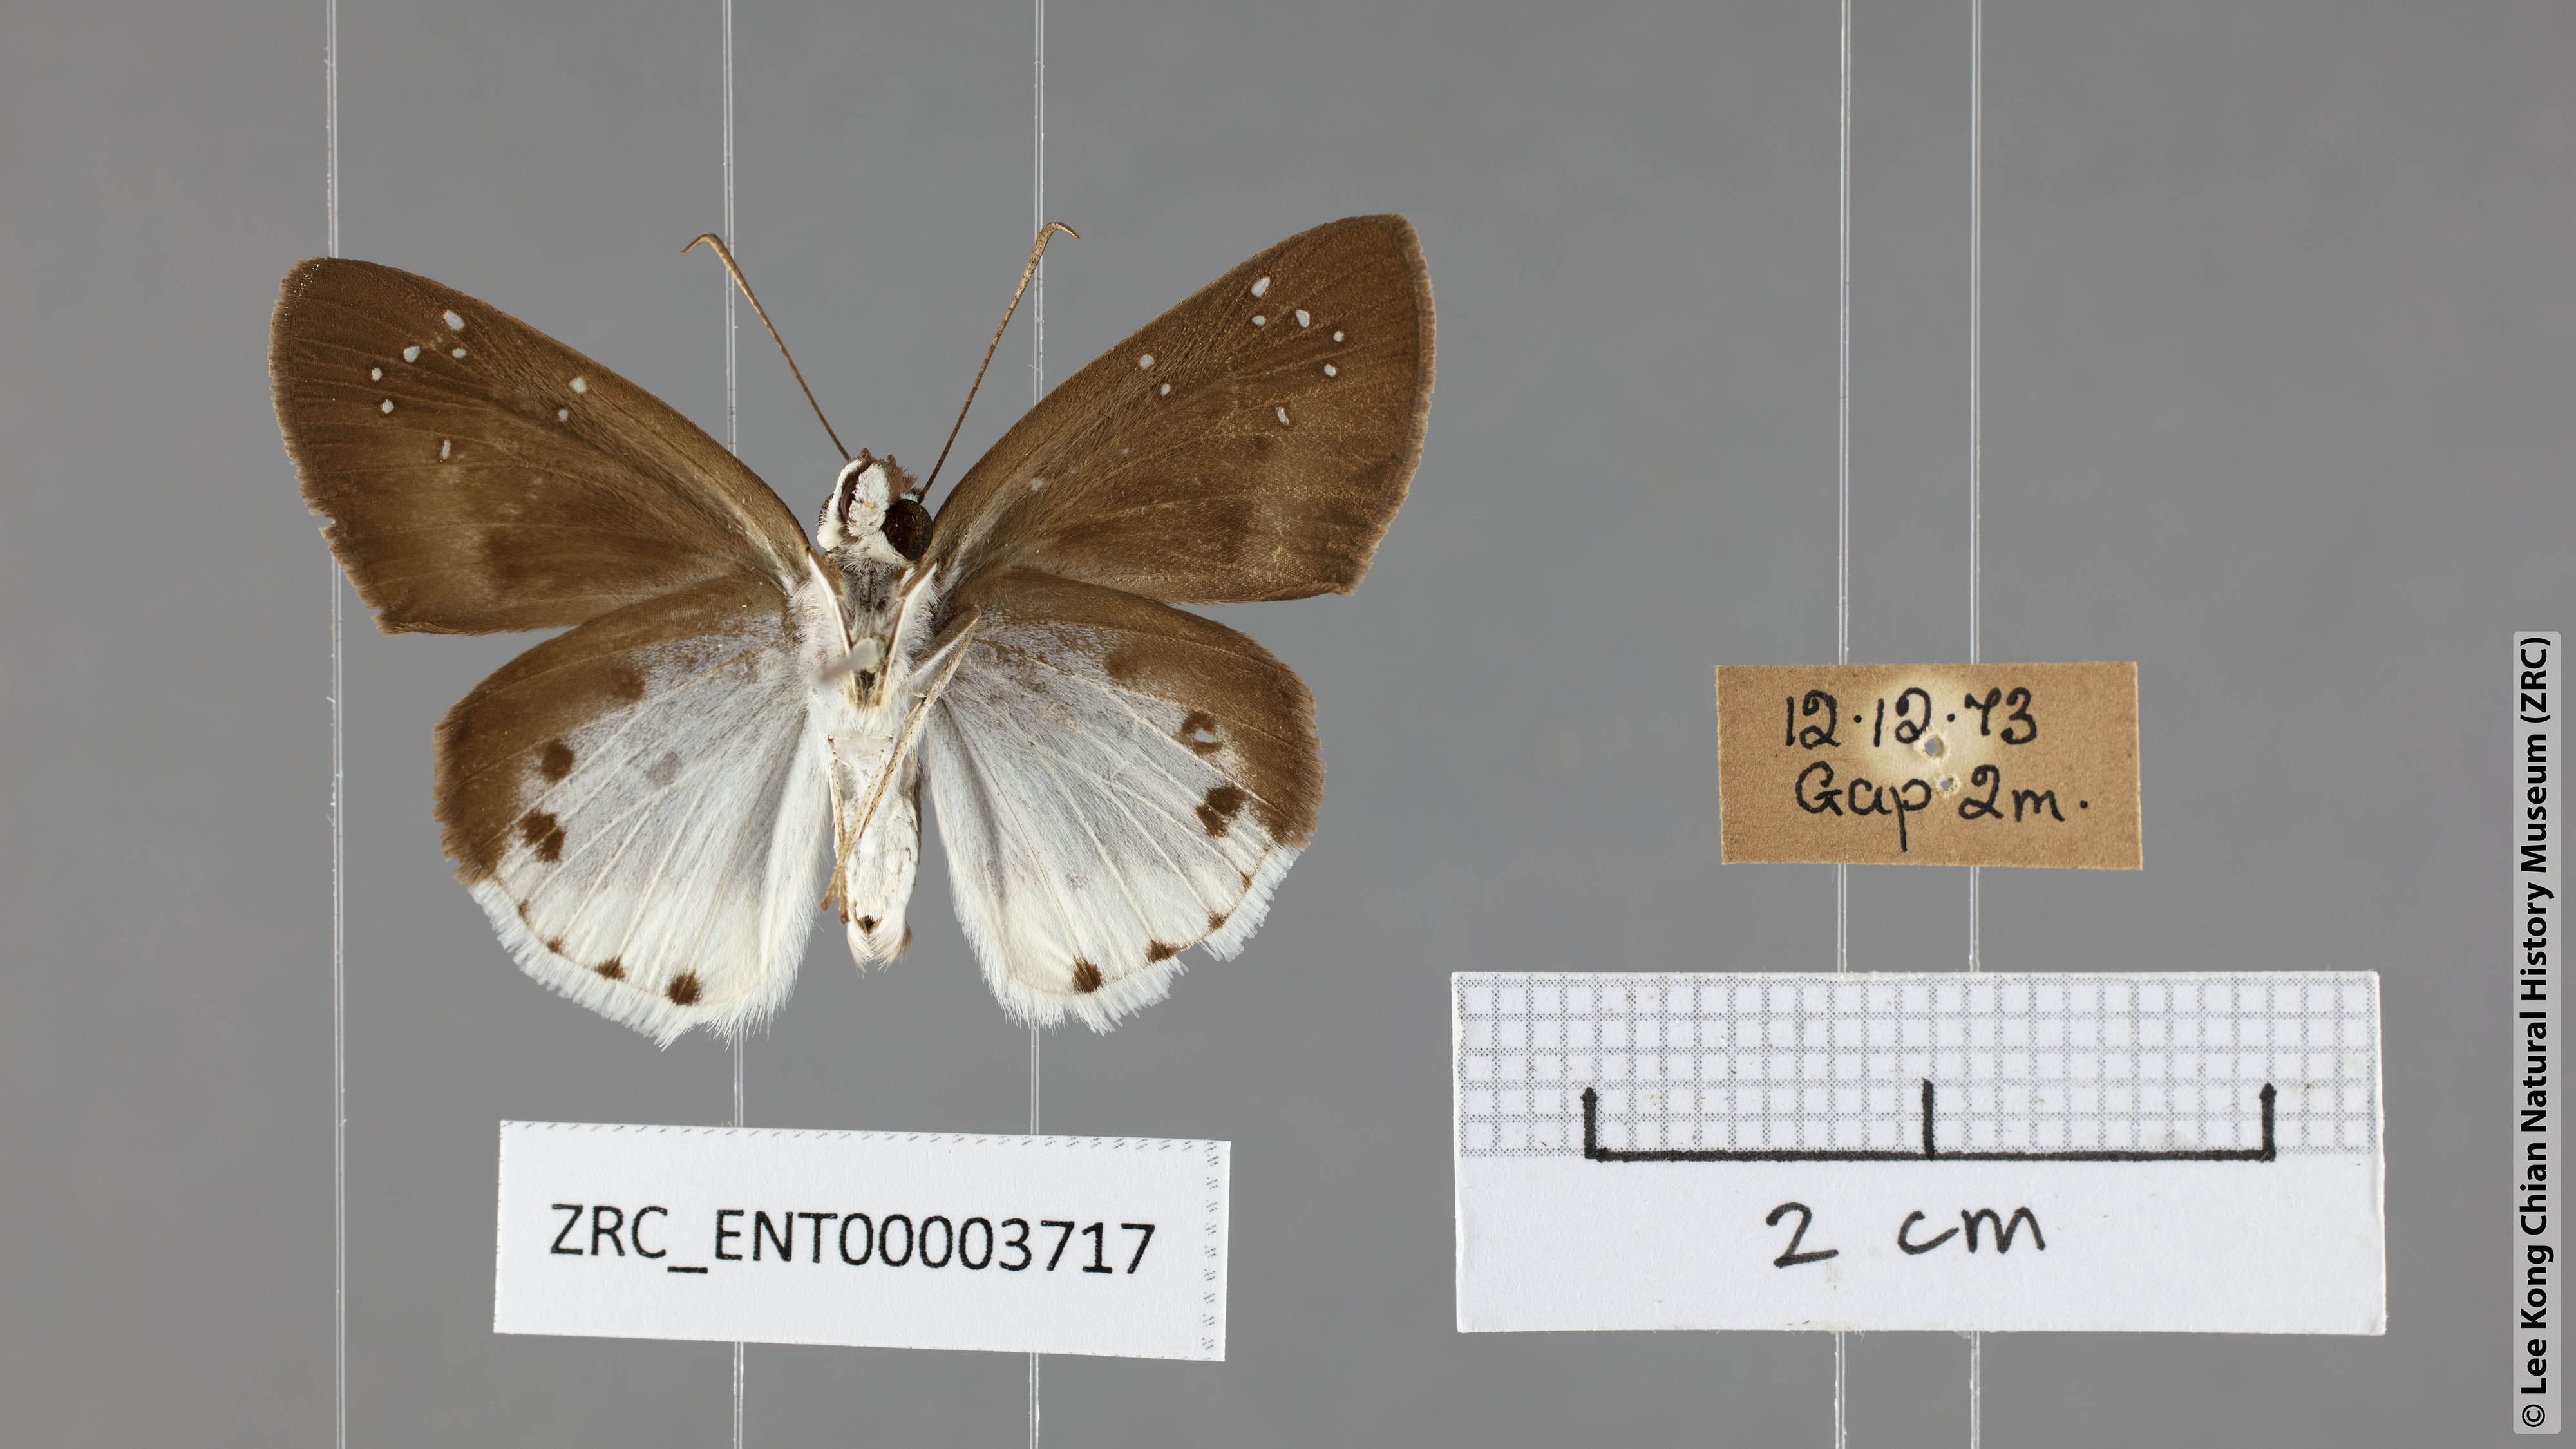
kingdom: Animalia
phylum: Arthropoda
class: Insecta
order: Lepidoptera
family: Hesperiidae
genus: Tagiades
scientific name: Tagiades toba
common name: Different-spotted snow flat
